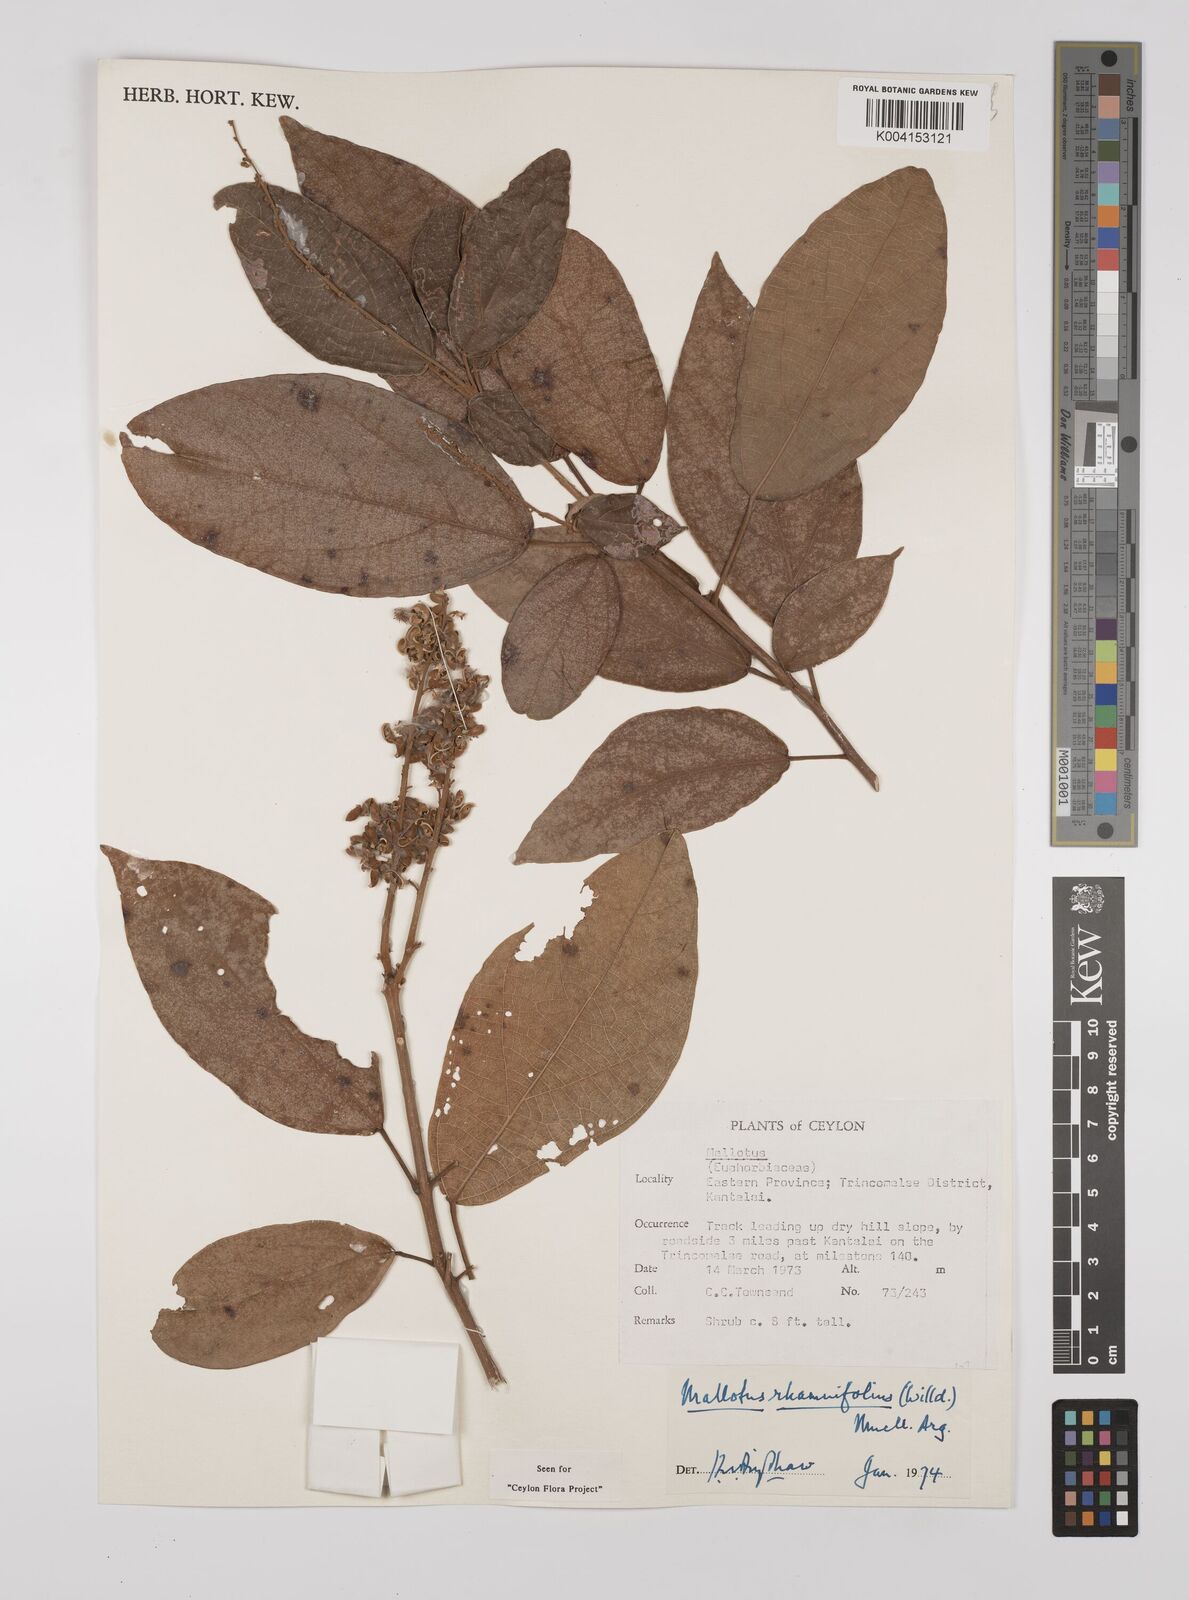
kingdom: Plantae
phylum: Tracheophyta
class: Magnoliopsida
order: Malpighiales
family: Euphorbiaceae
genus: Mallotus
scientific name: Mallotus rhamnifolius
